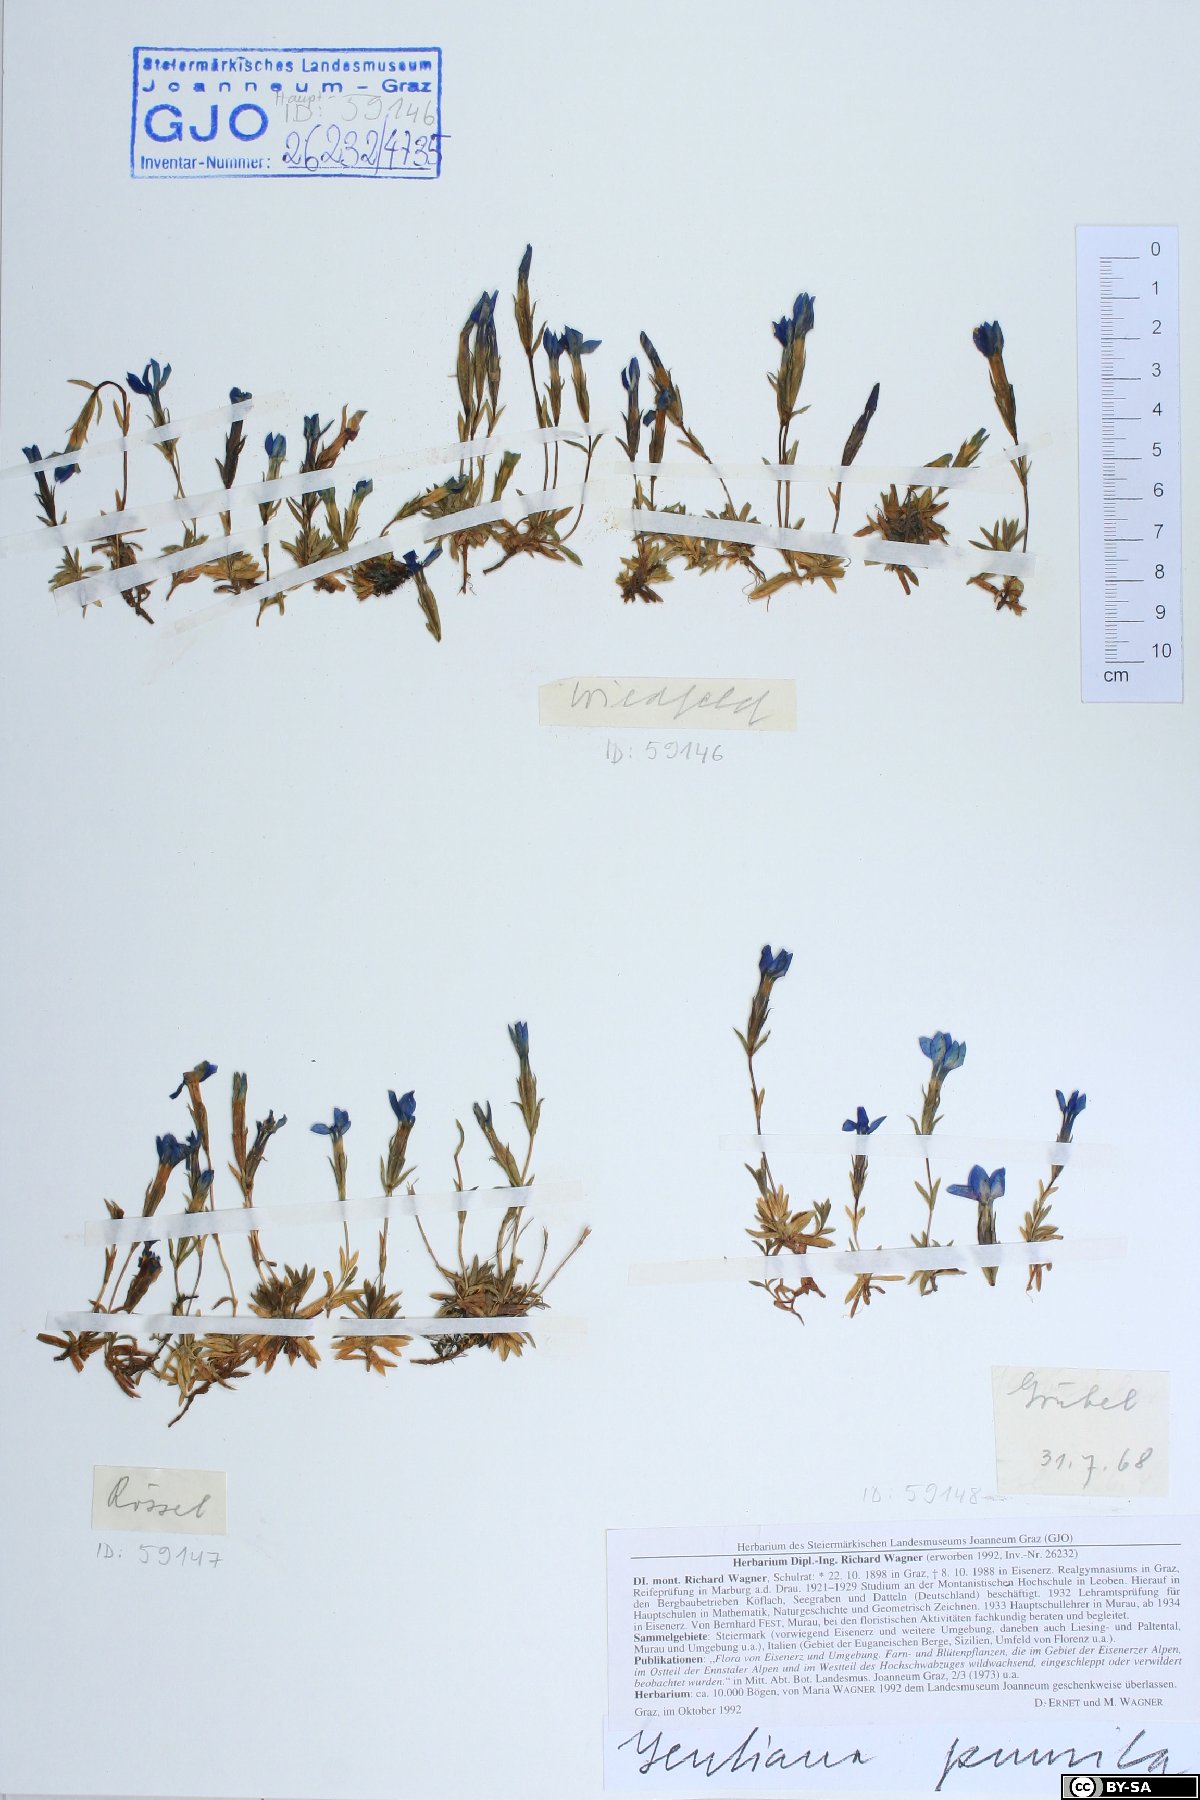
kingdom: Plantae
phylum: Tracheophyta
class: Magnoliopsida
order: Gentianales
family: Gentianaceae
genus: Gentiana
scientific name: Gentiana pumila
